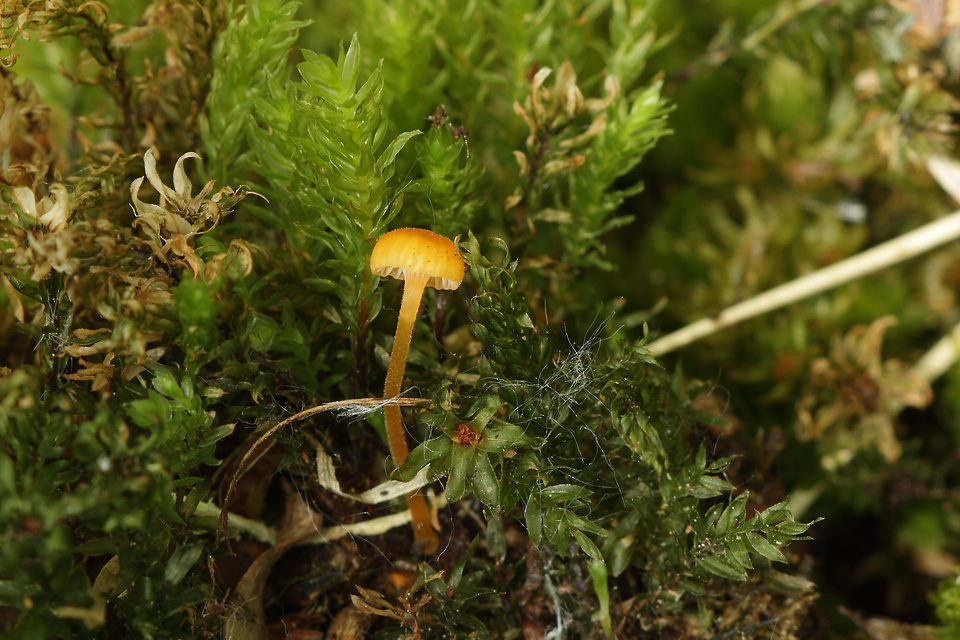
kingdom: Fungi
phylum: Basidiomycota
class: Agaricomycetes
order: Hymenochaetales
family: Rickenellaceae
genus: Rickenella
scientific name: Rickenella fibula
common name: orange mosnavlehat
